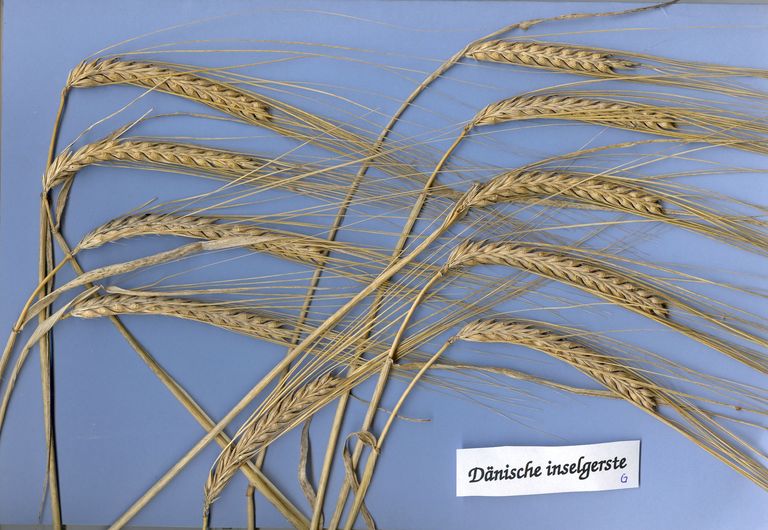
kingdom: Plantae
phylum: Tracheophyta
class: Liliopsida
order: Poales
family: Poaceae
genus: Hordeum
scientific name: Hordeum vulgare
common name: Common barley
